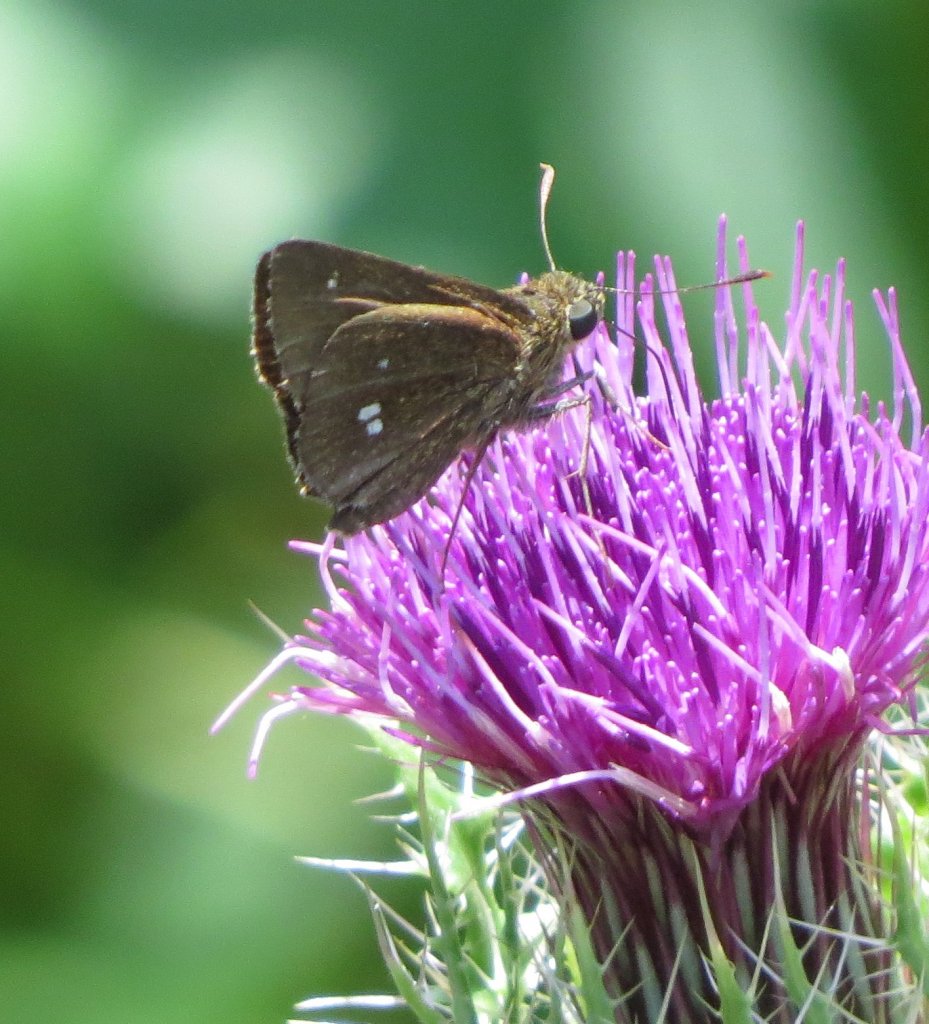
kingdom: Animalia
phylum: Arthropoda
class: Insecta
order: Lepidoptera
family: Hesperiidae
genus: Oligoria
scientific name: Oligoria maculata
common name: Twin-spot Skipper
